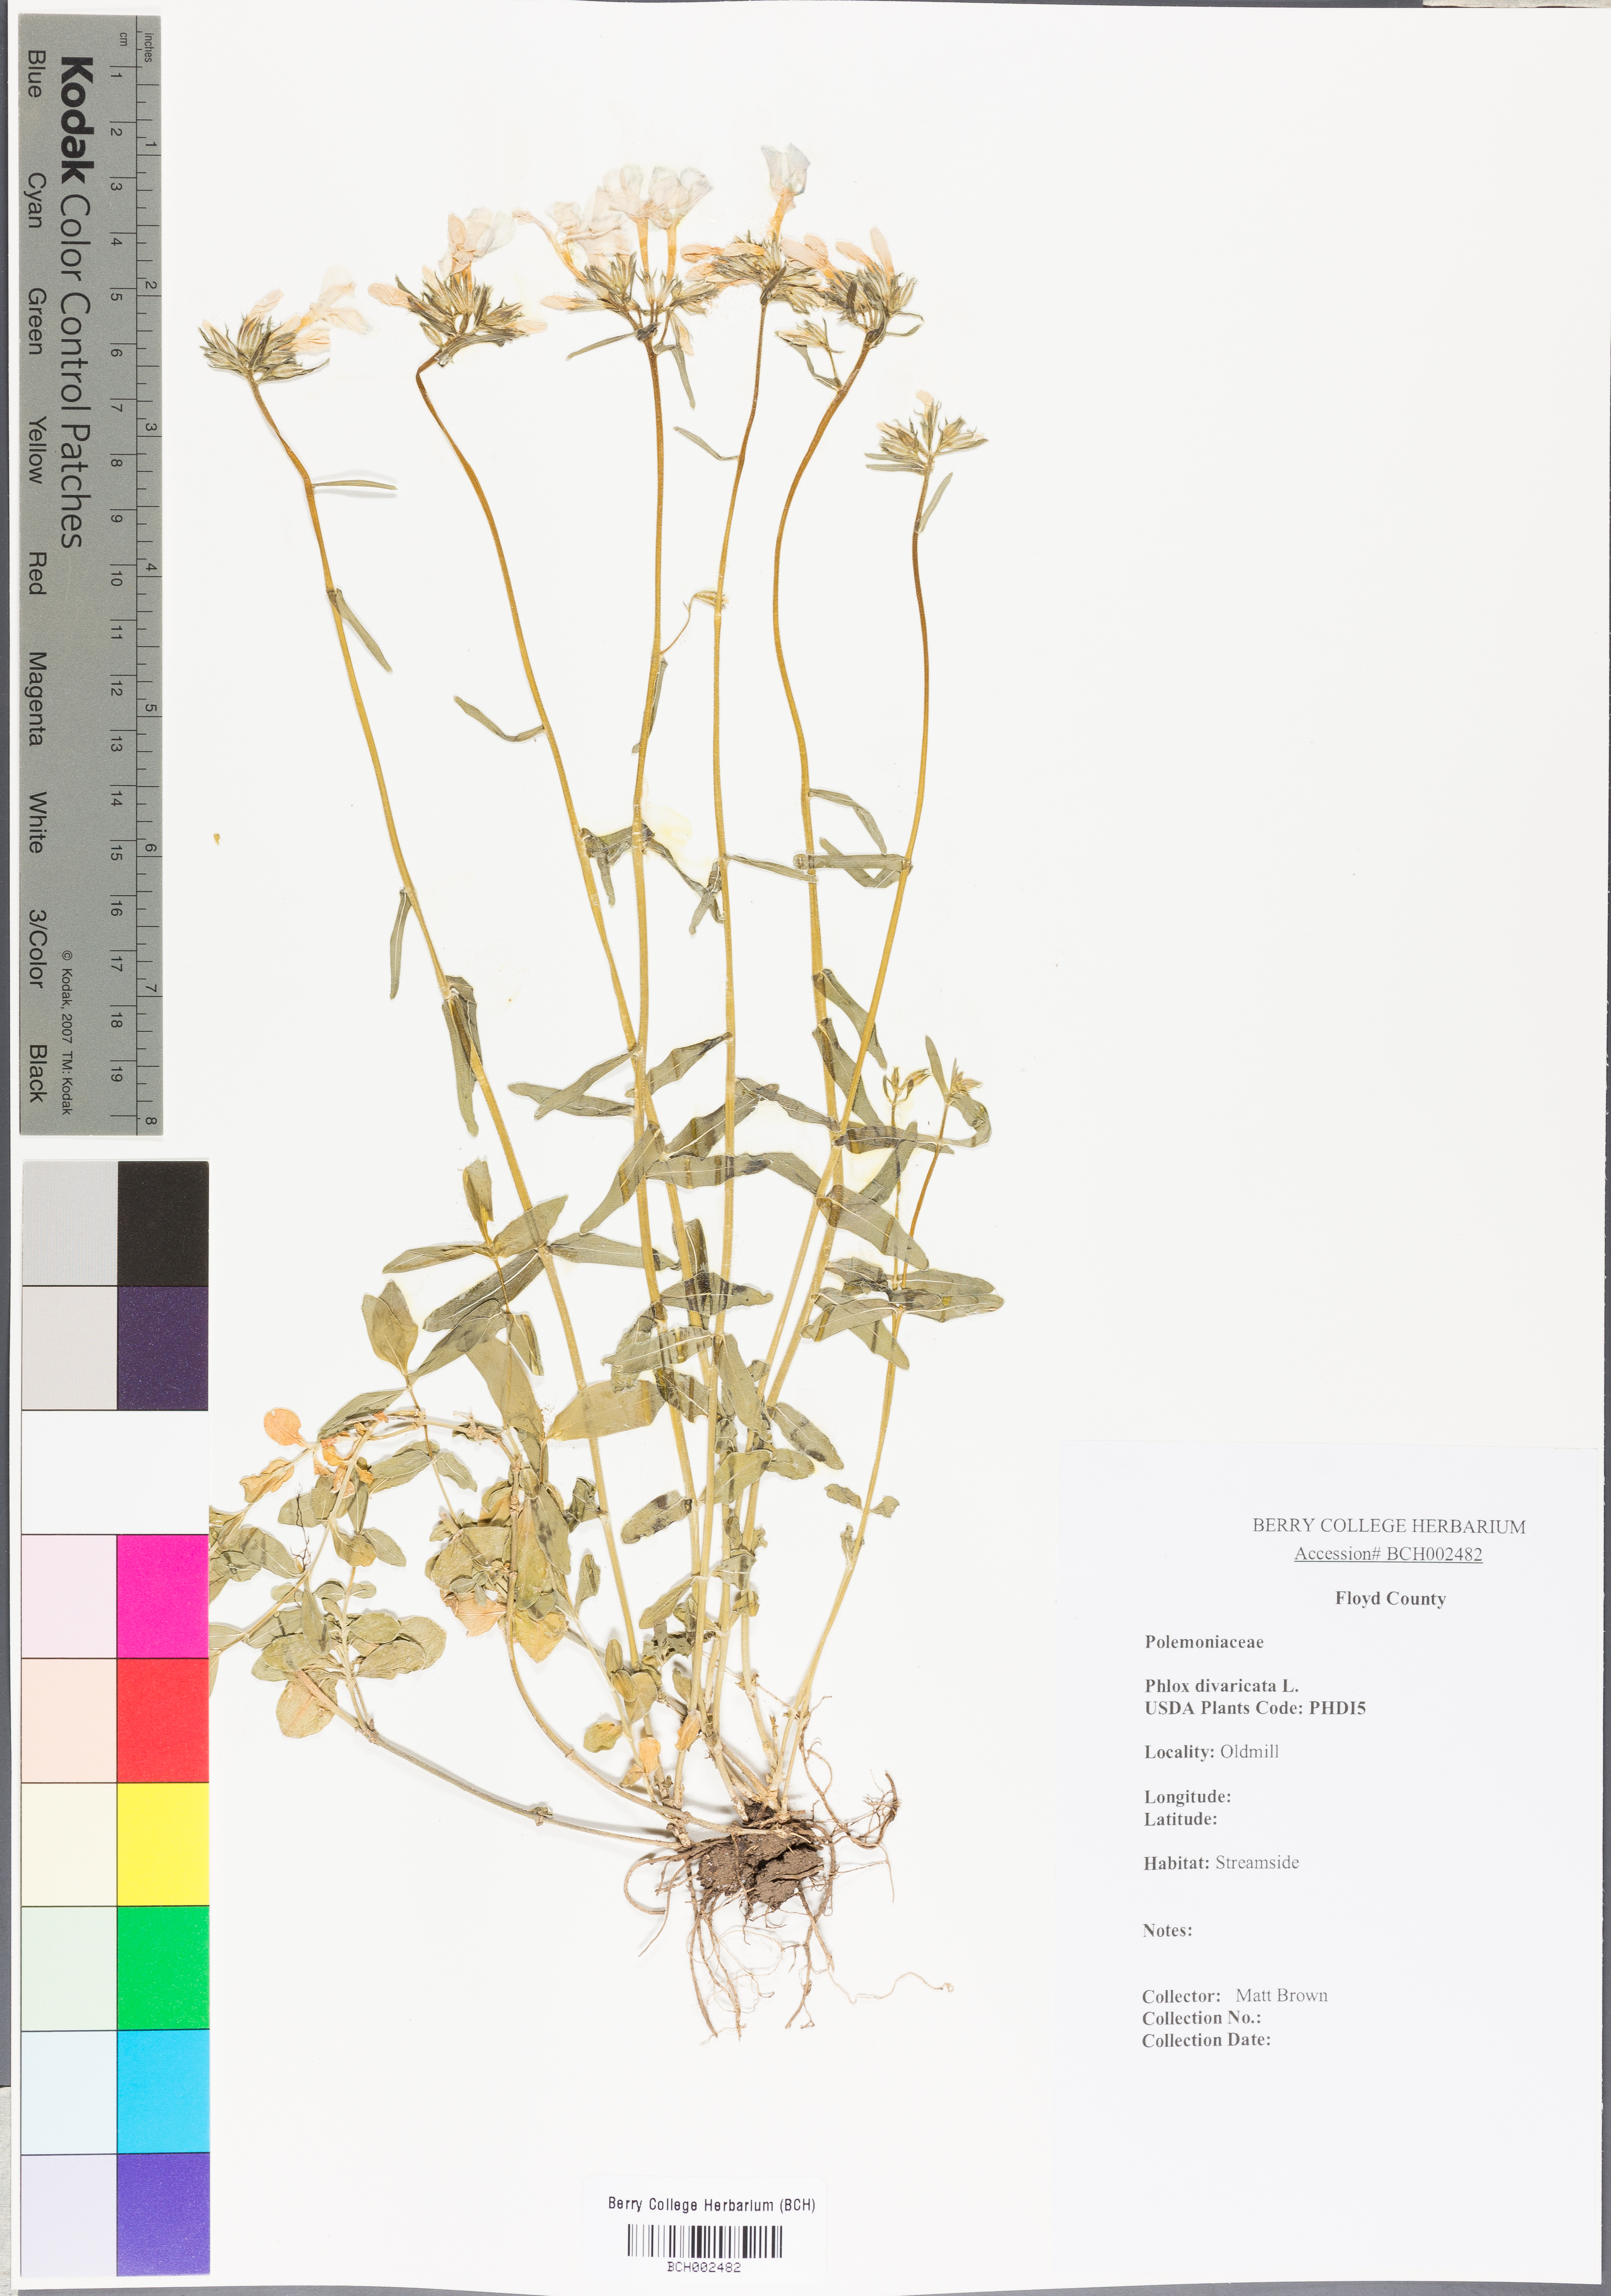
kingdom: Plantae
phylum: Tracheophyta
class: Magnoliopsida
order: Ericales
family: Polemoniaceae
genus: Phlox
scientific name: Phlox divaricata
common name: Blue phlox
